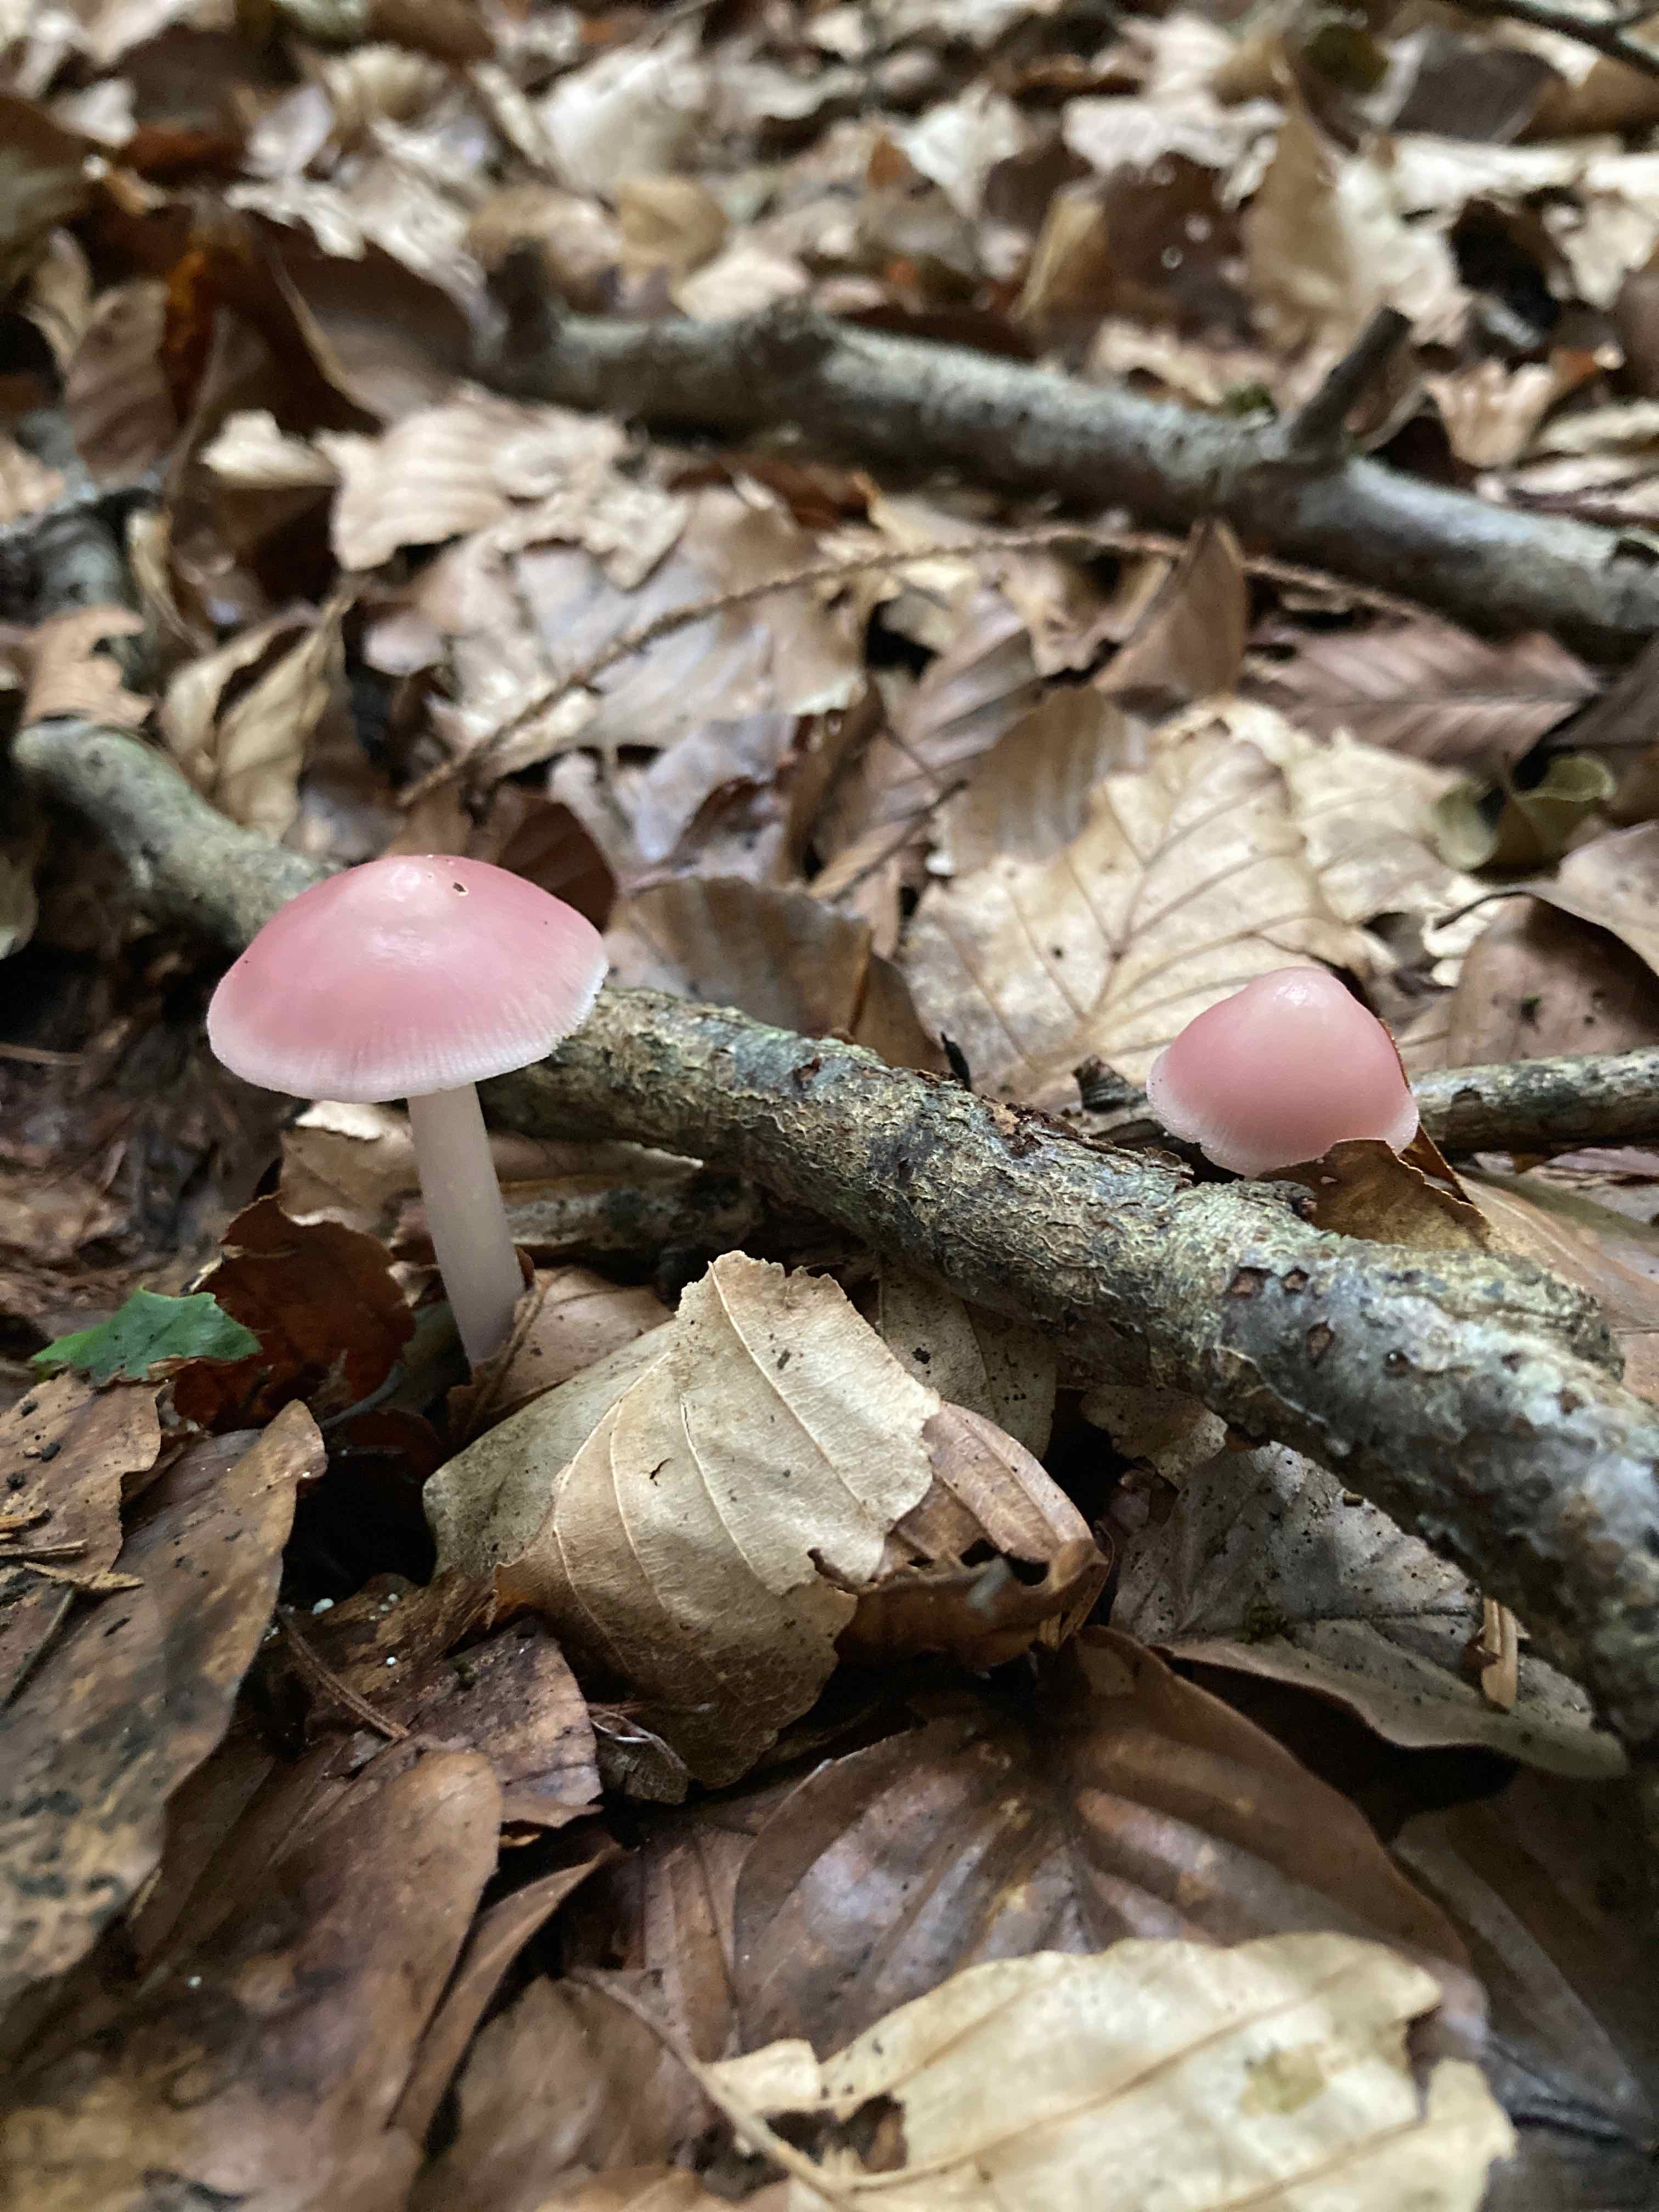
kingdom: Fungi
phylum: Basidiomycota
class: Agaricomycetes
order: Agaricales
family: Mycenaceae
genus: Mycena
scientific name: Mycena rosea
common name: rosa huesvamp
